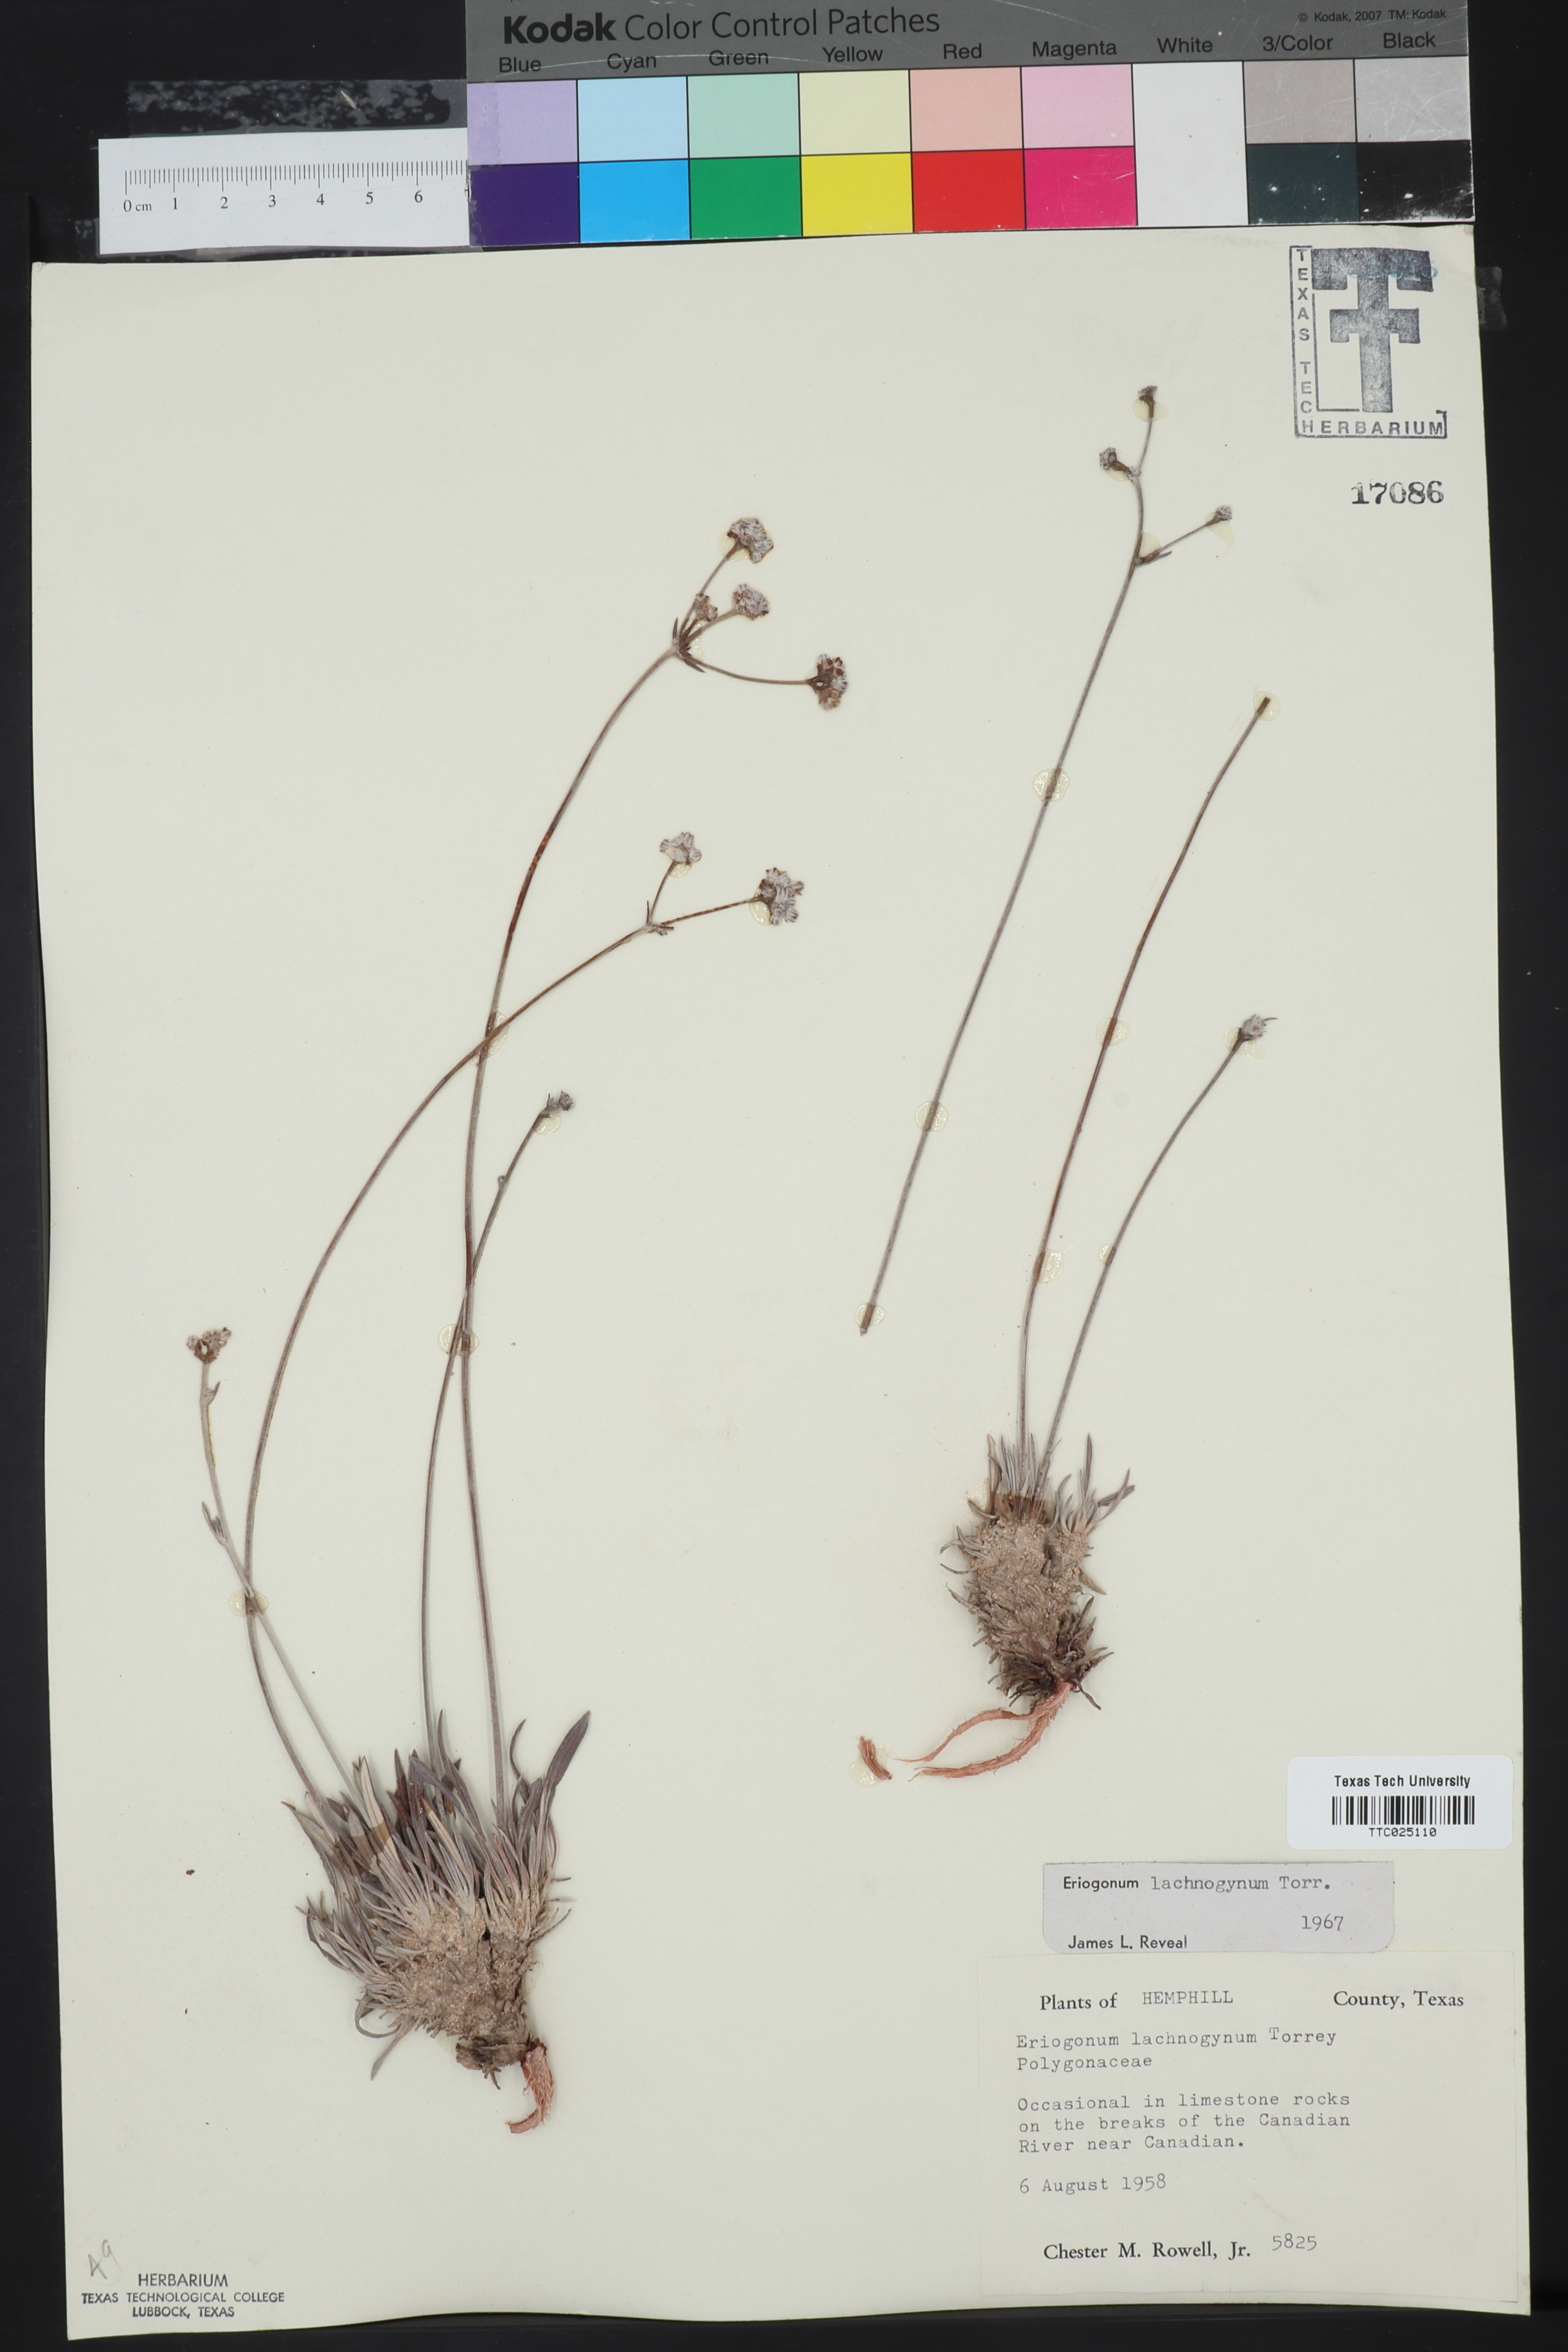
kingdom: Plantae
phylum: Tracheophyta
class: Magnoliopsida
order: Caryophyllales
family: Polygonaceae
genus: Eriogonum
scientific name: Eriogonum lachnogynum
